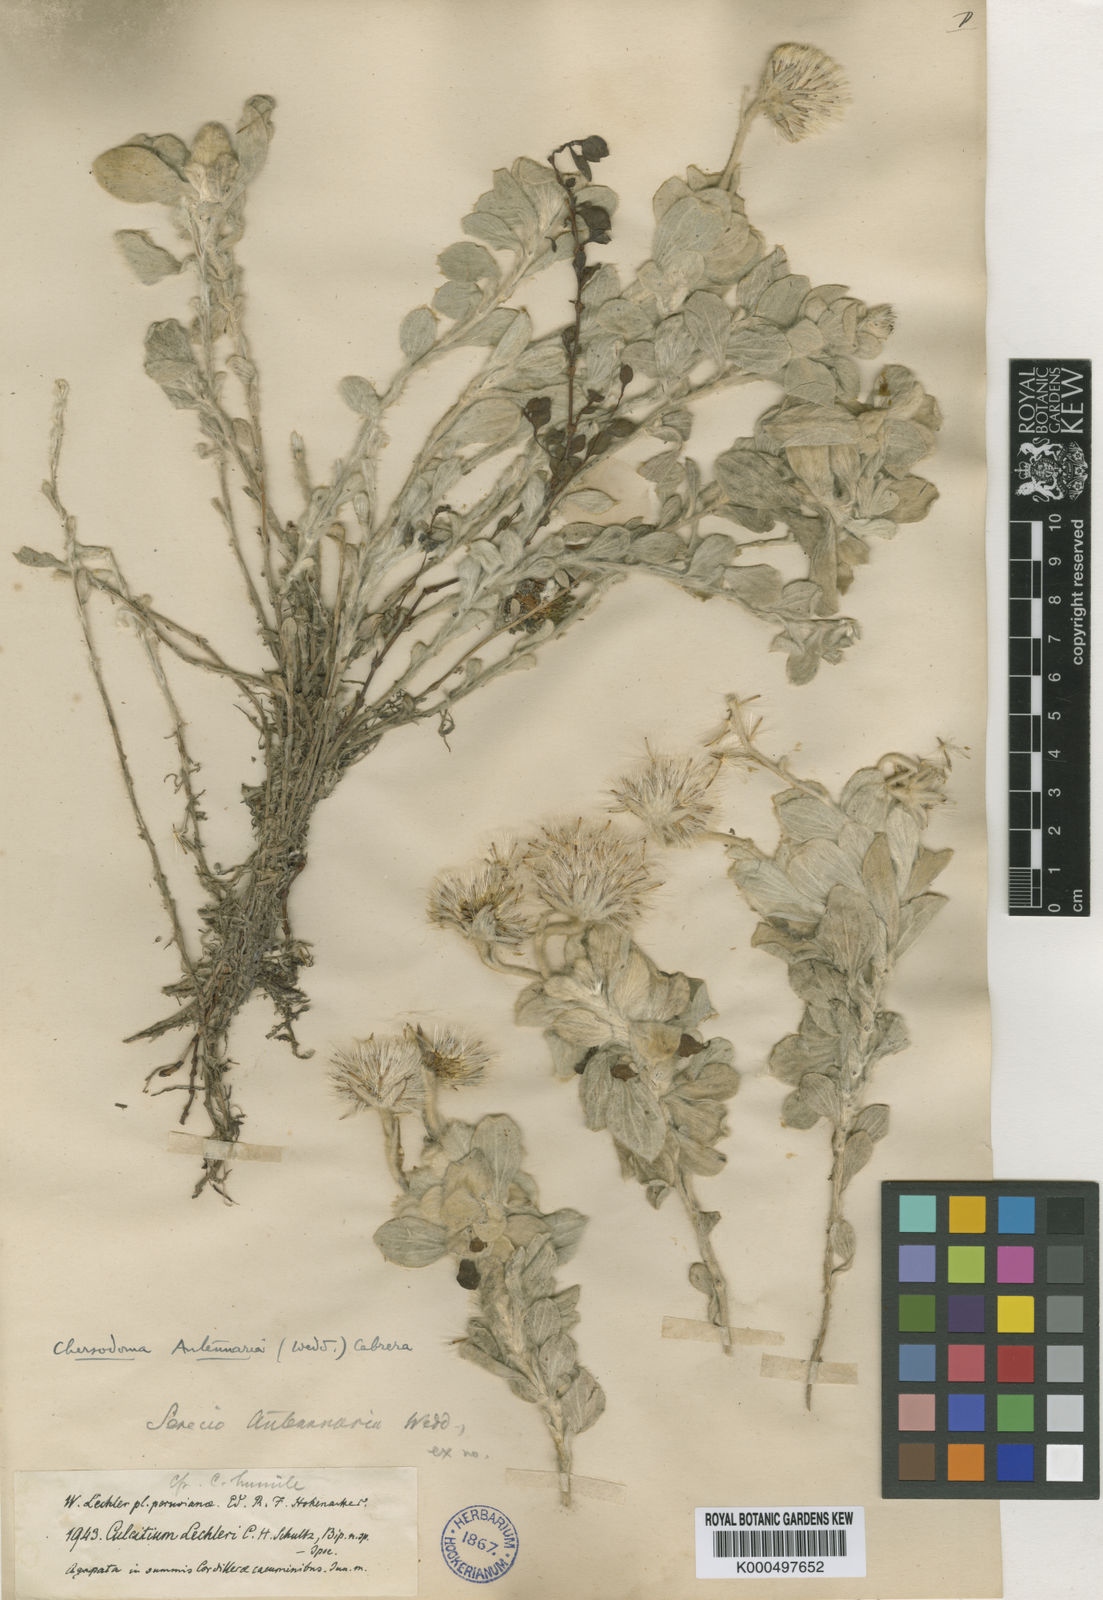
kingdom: Plantae
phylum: Tracheophyta
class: Magnoliopsida
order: Asterales
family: Asteraceae
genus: Chersodoma
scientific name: Chersodoma antennaria
